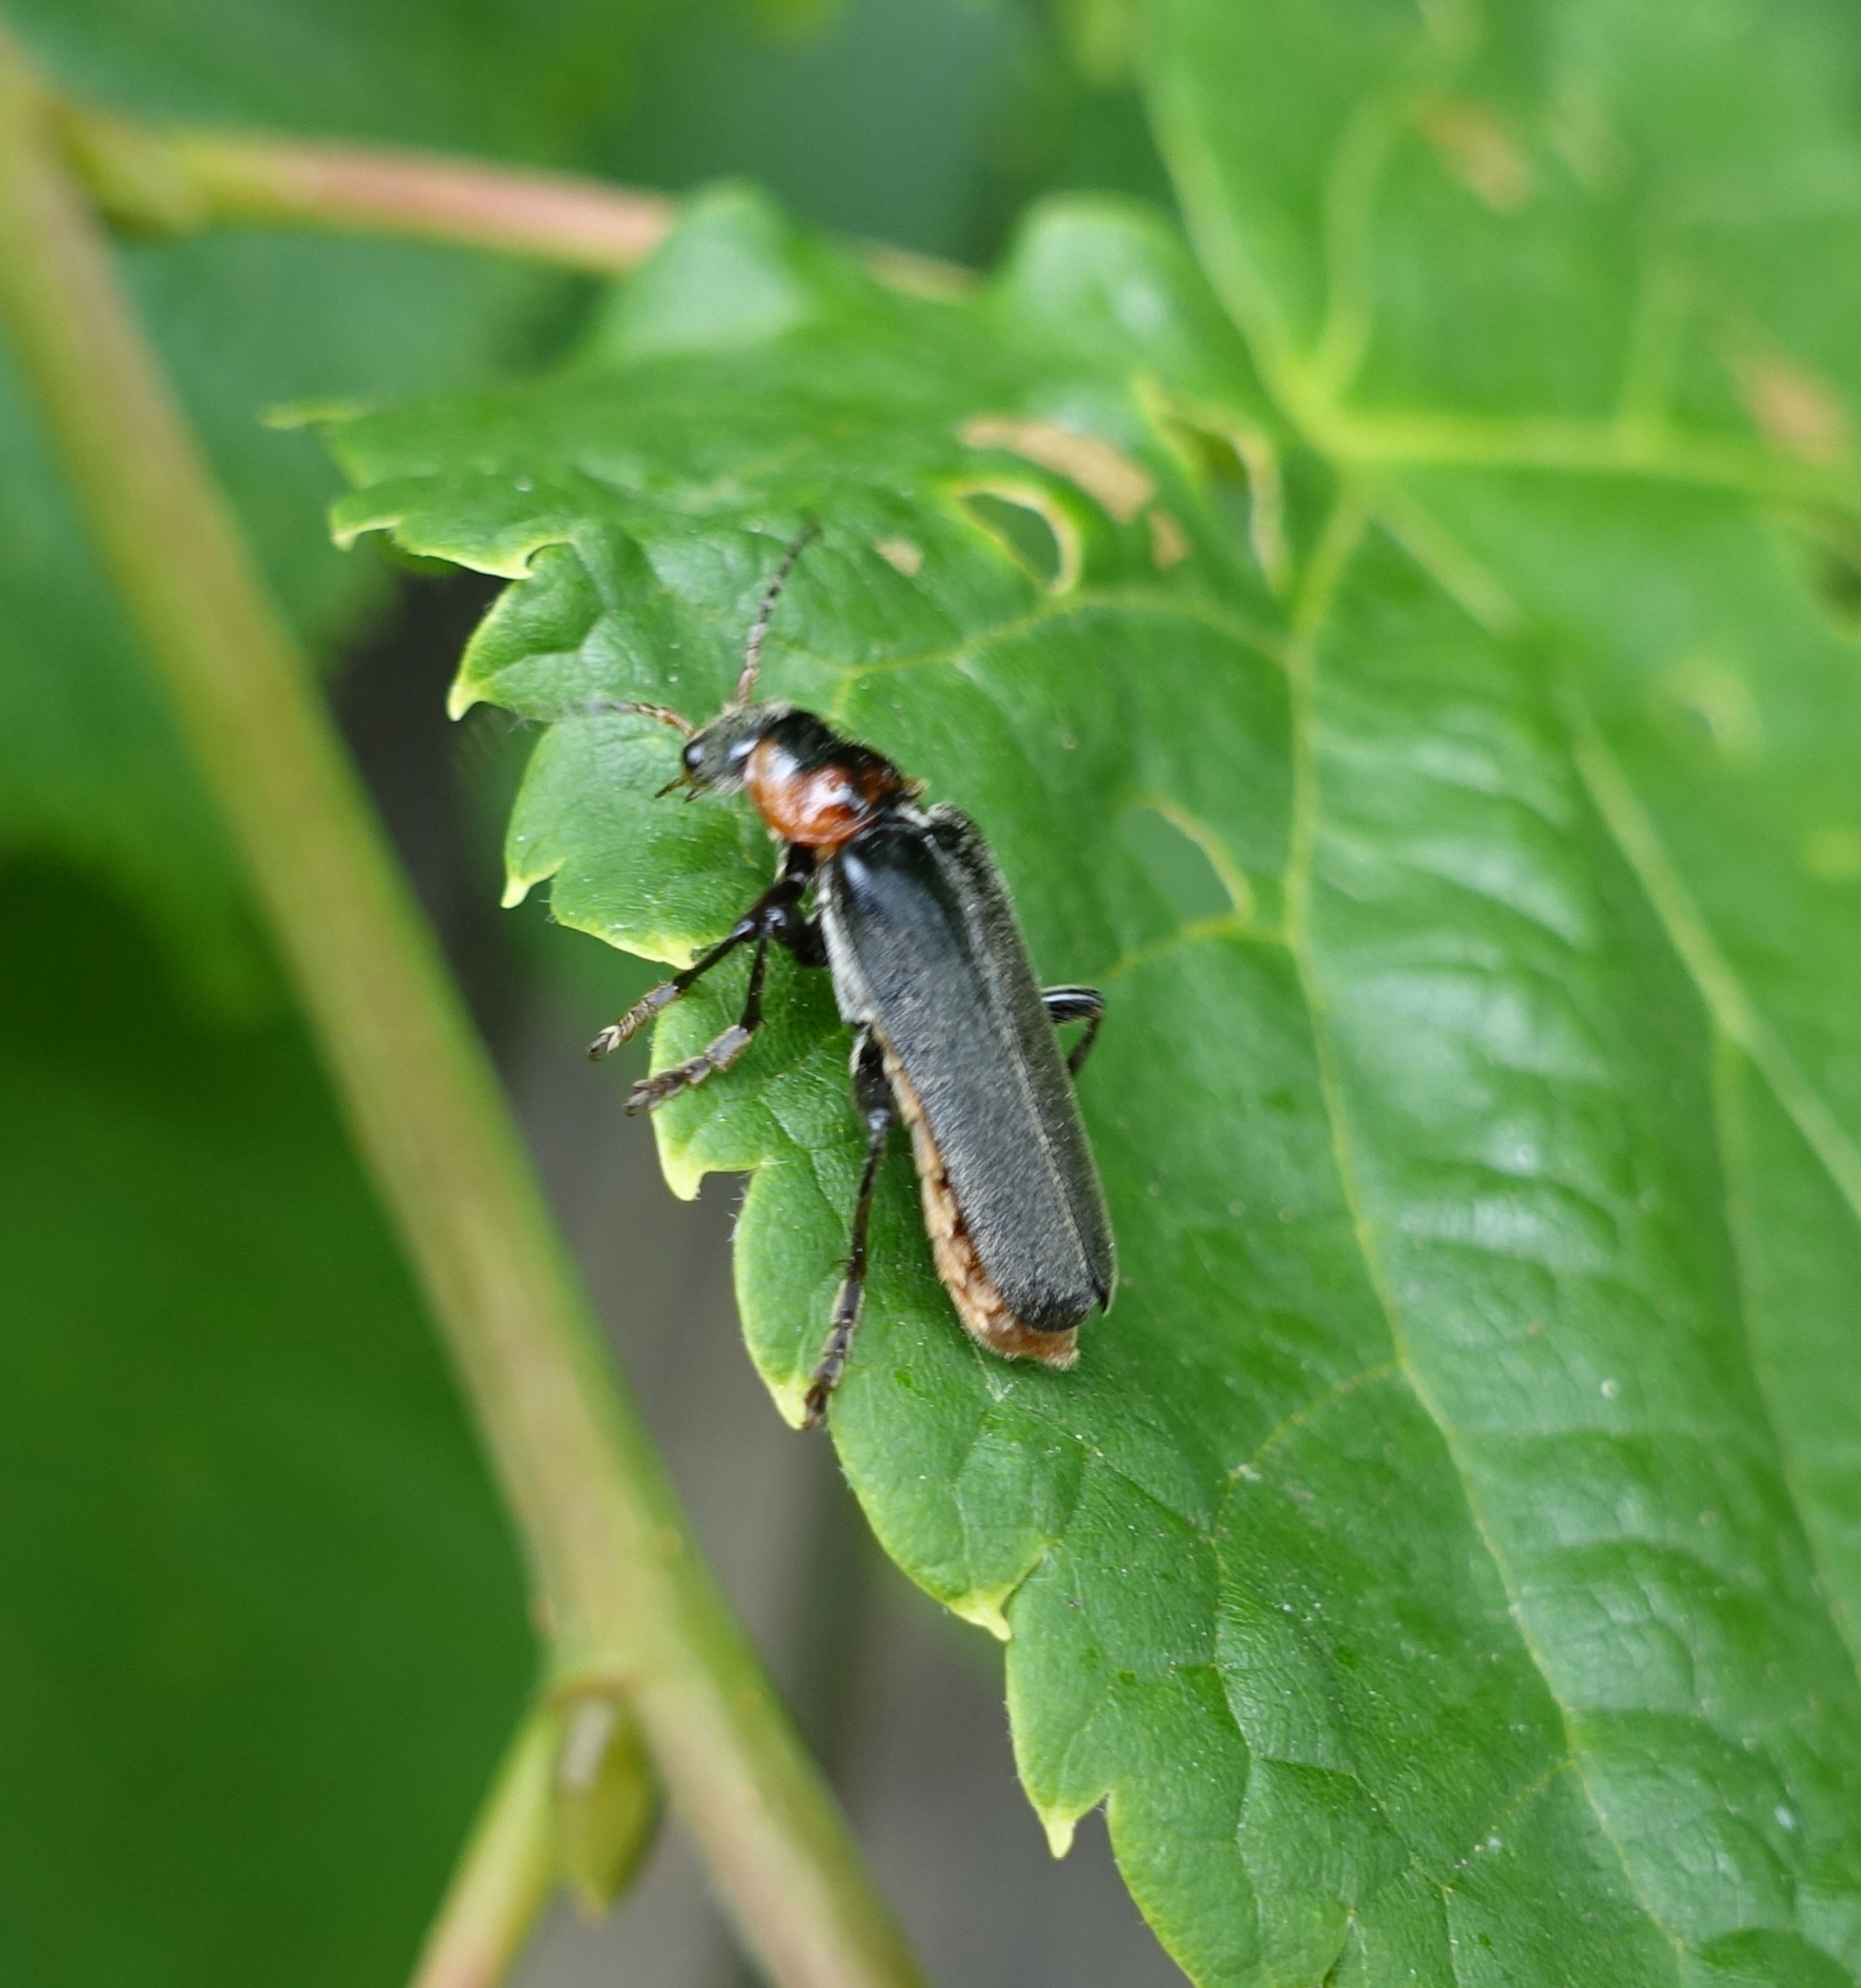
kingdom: Animalia
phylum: Arthropoda
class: Insecta
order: Coleoptera
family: Cantharidae
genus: Cantharis
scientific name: Cantharis fusca
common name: Stor blødvinge
